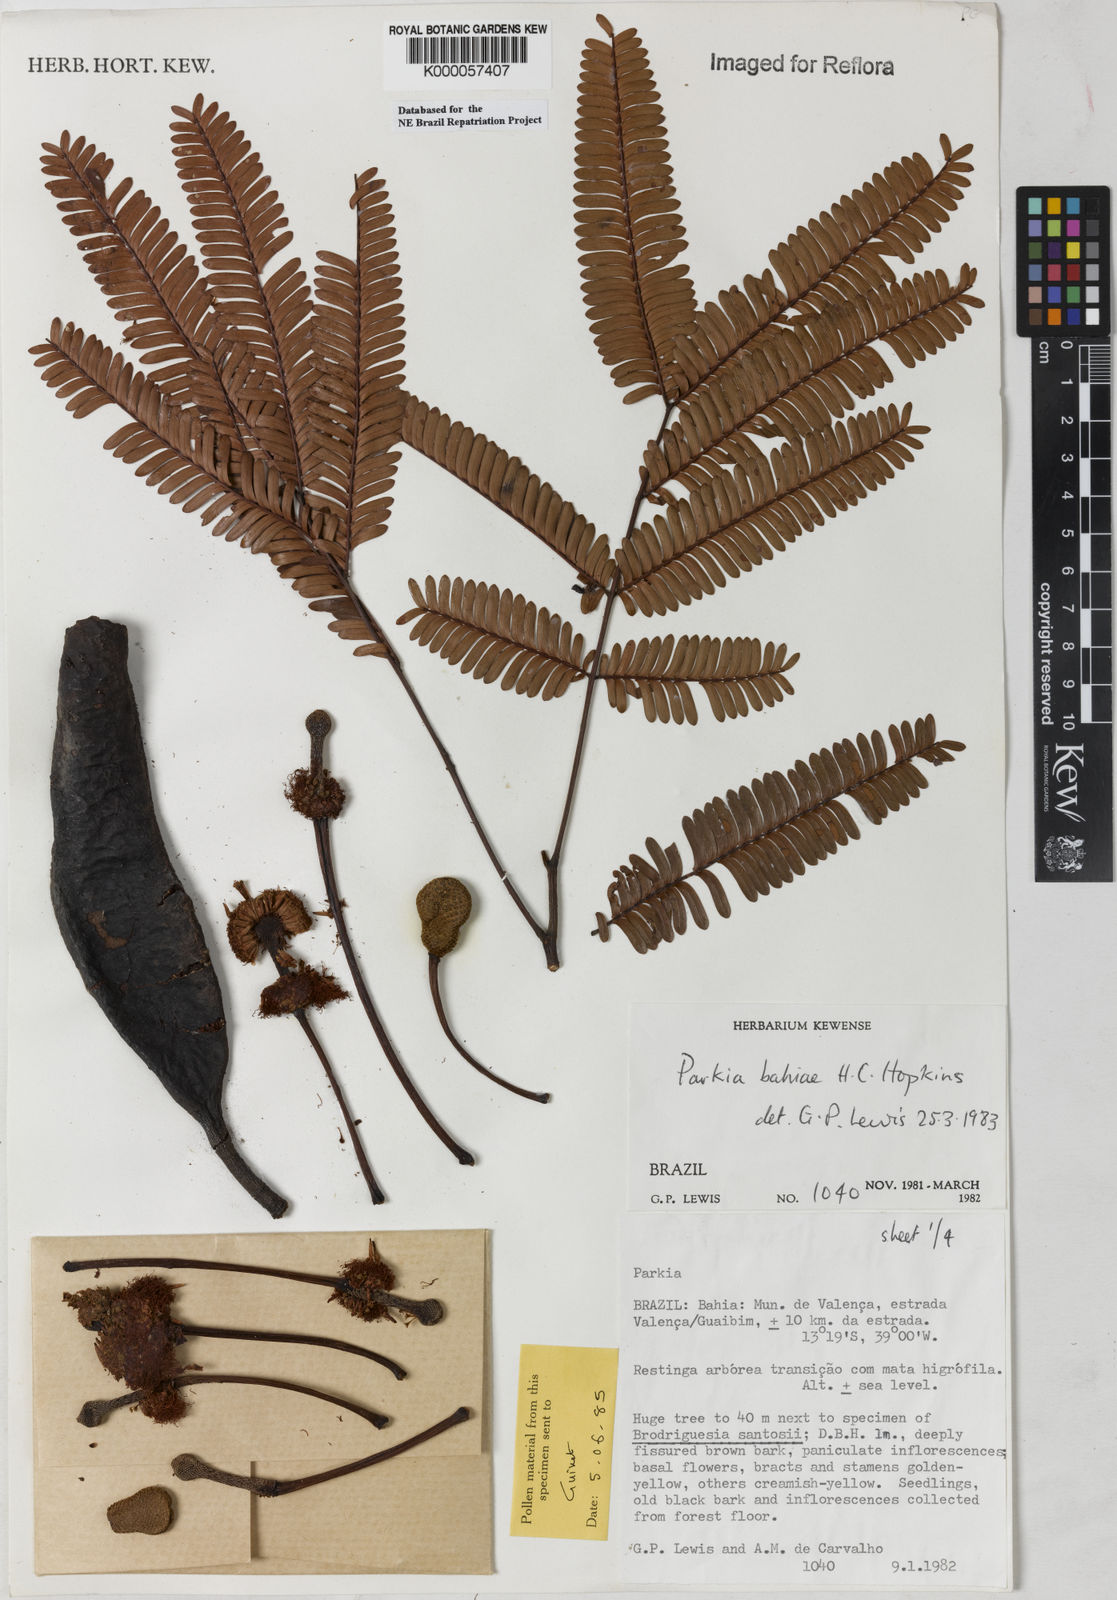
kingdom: Plantae
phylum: Tracheophyta
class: Magnoliopsida
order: Fabales
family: Fabaceae
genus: Parkia
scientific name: Parkia bahiae
